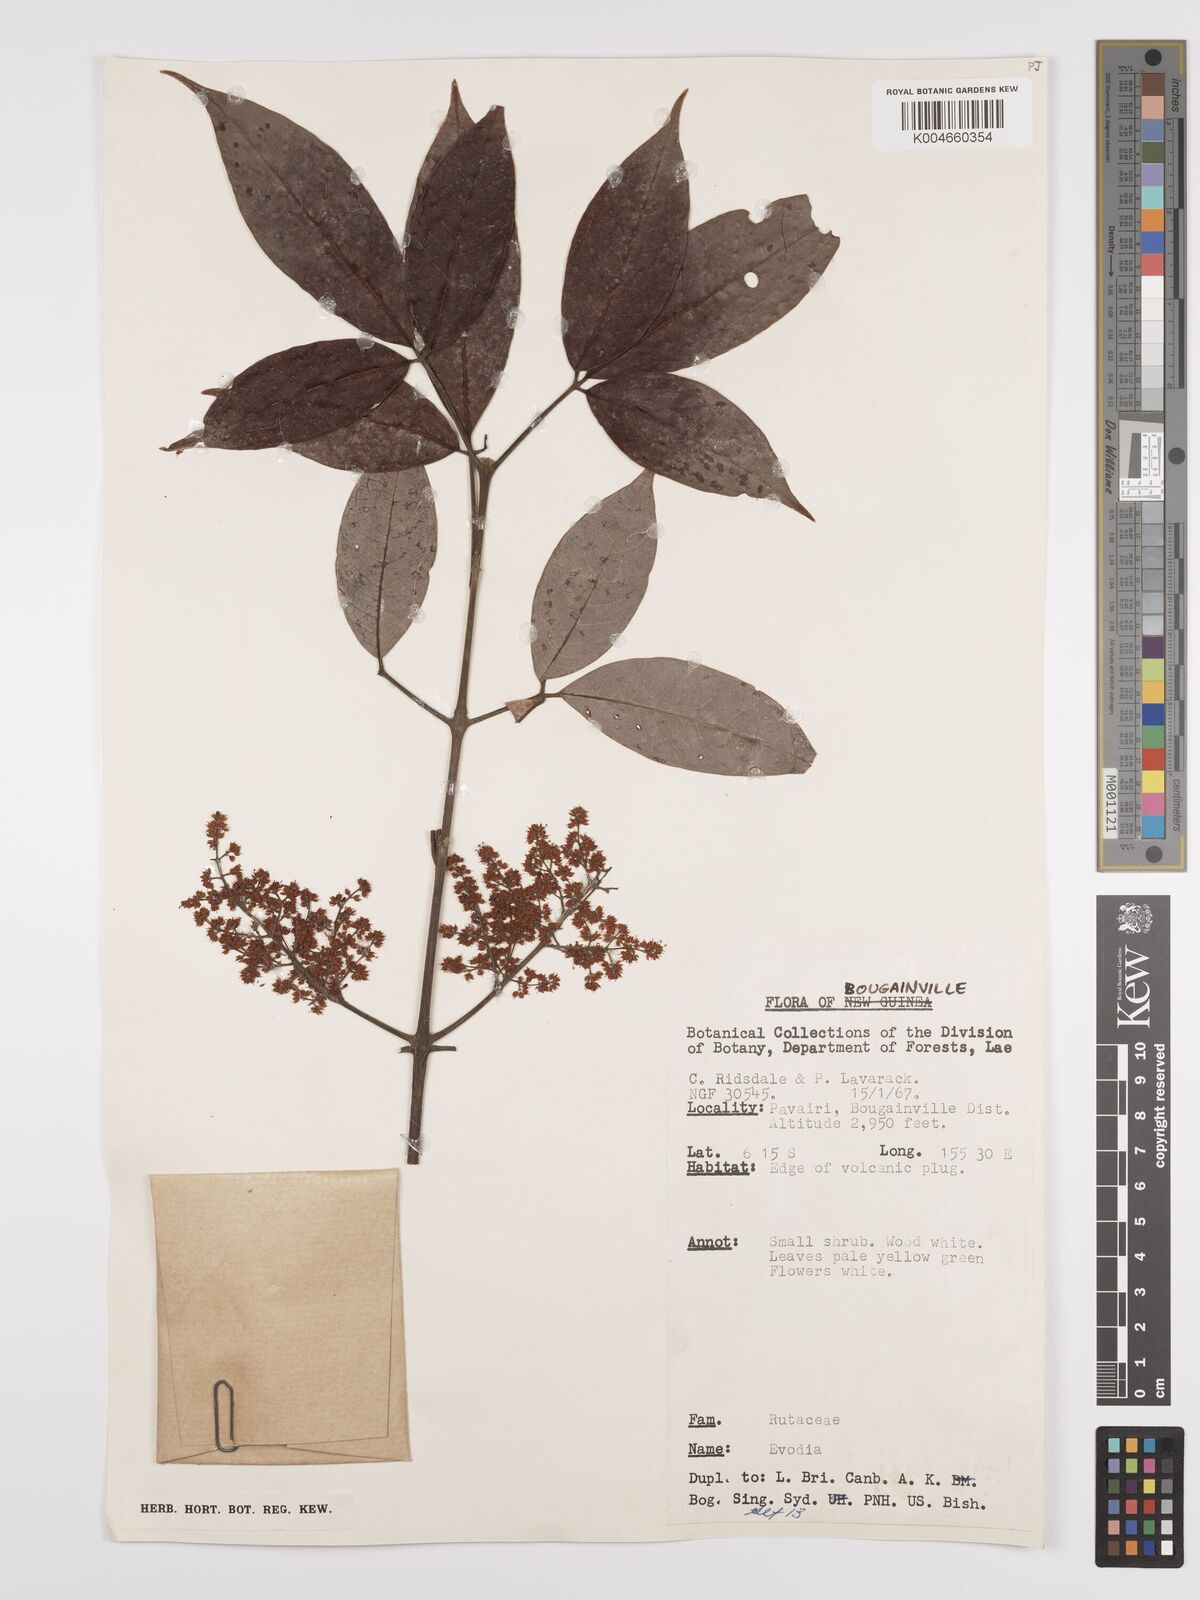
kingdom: Plantae
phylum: Tracheophyta
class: Magnoliopsida
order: Sapindales
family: Rutaceae
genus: Euodia
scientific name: Euodia
